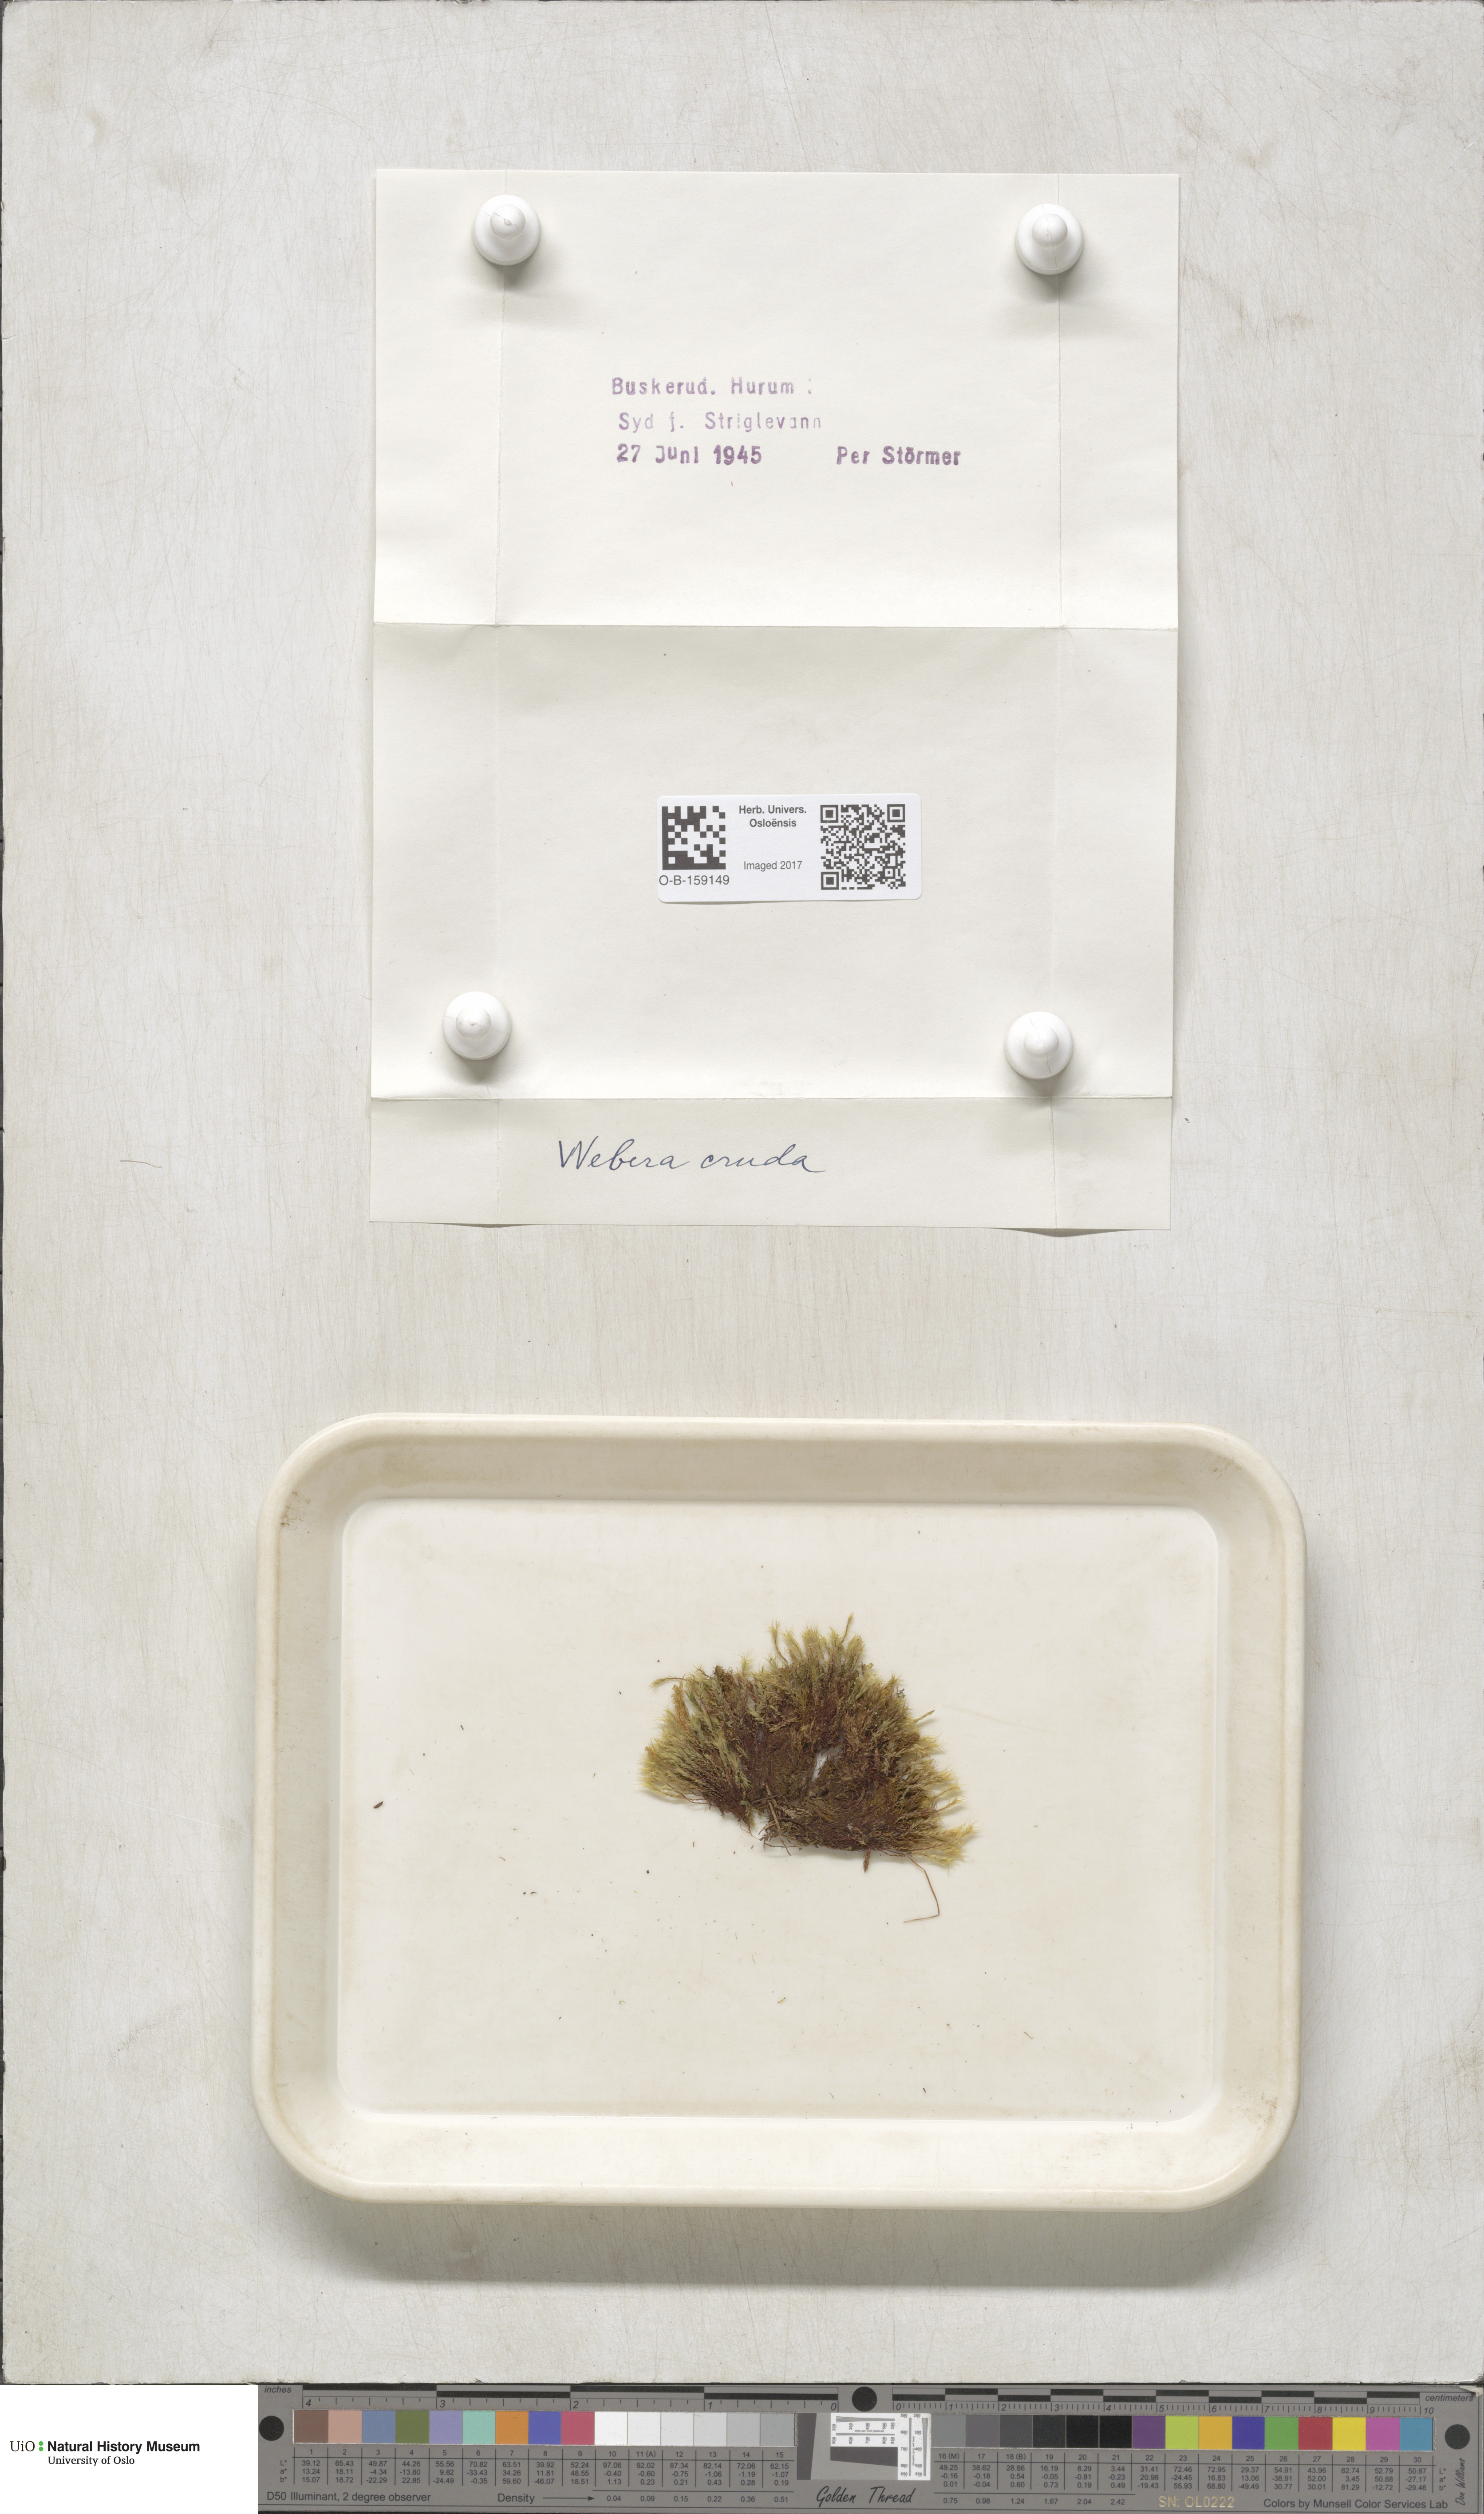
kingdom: Plantae
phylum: Bryophyta
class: Bryopsida
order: Bryales
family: Mniaceae
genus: Pohlia
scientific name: Pohlia cruda
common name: Opal nodding moss
